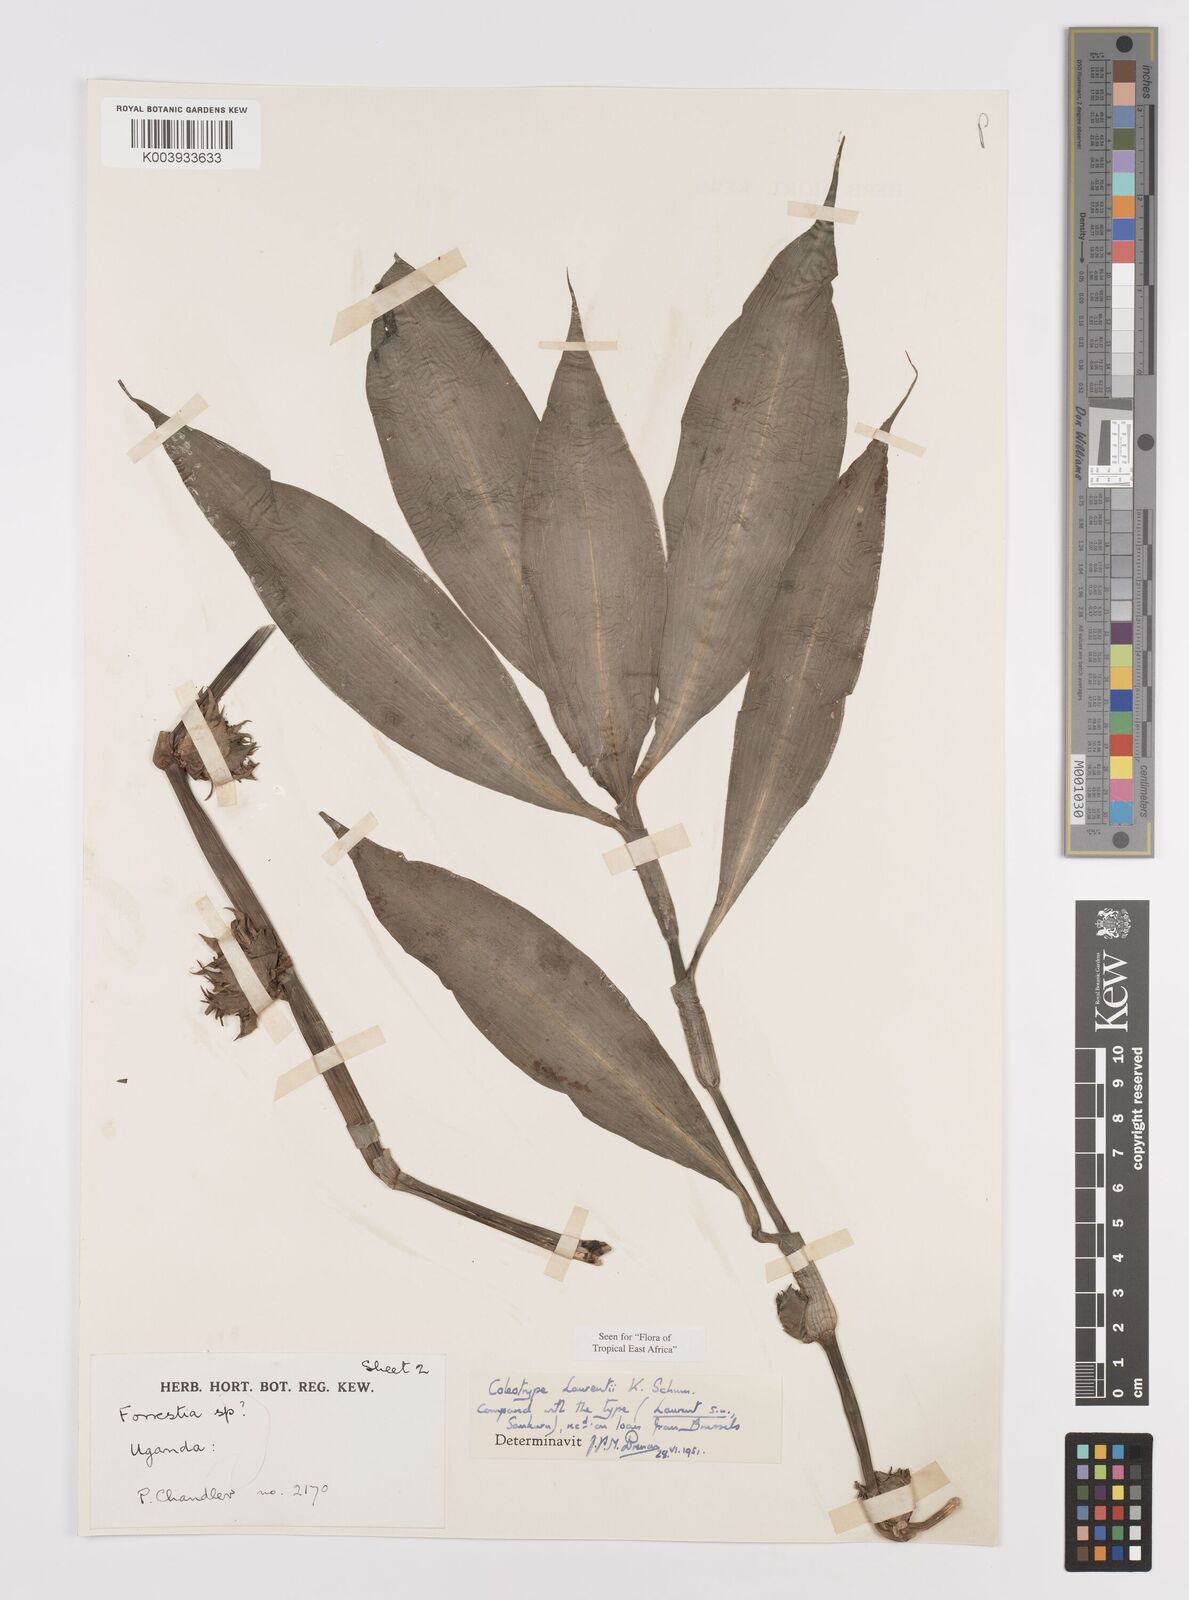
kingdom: Plantae
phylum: Tracheophyta
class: Liliopsida
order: Commelinales
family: Commelinaceae
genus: Coleotrype
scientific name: Coleotrype laurentii
